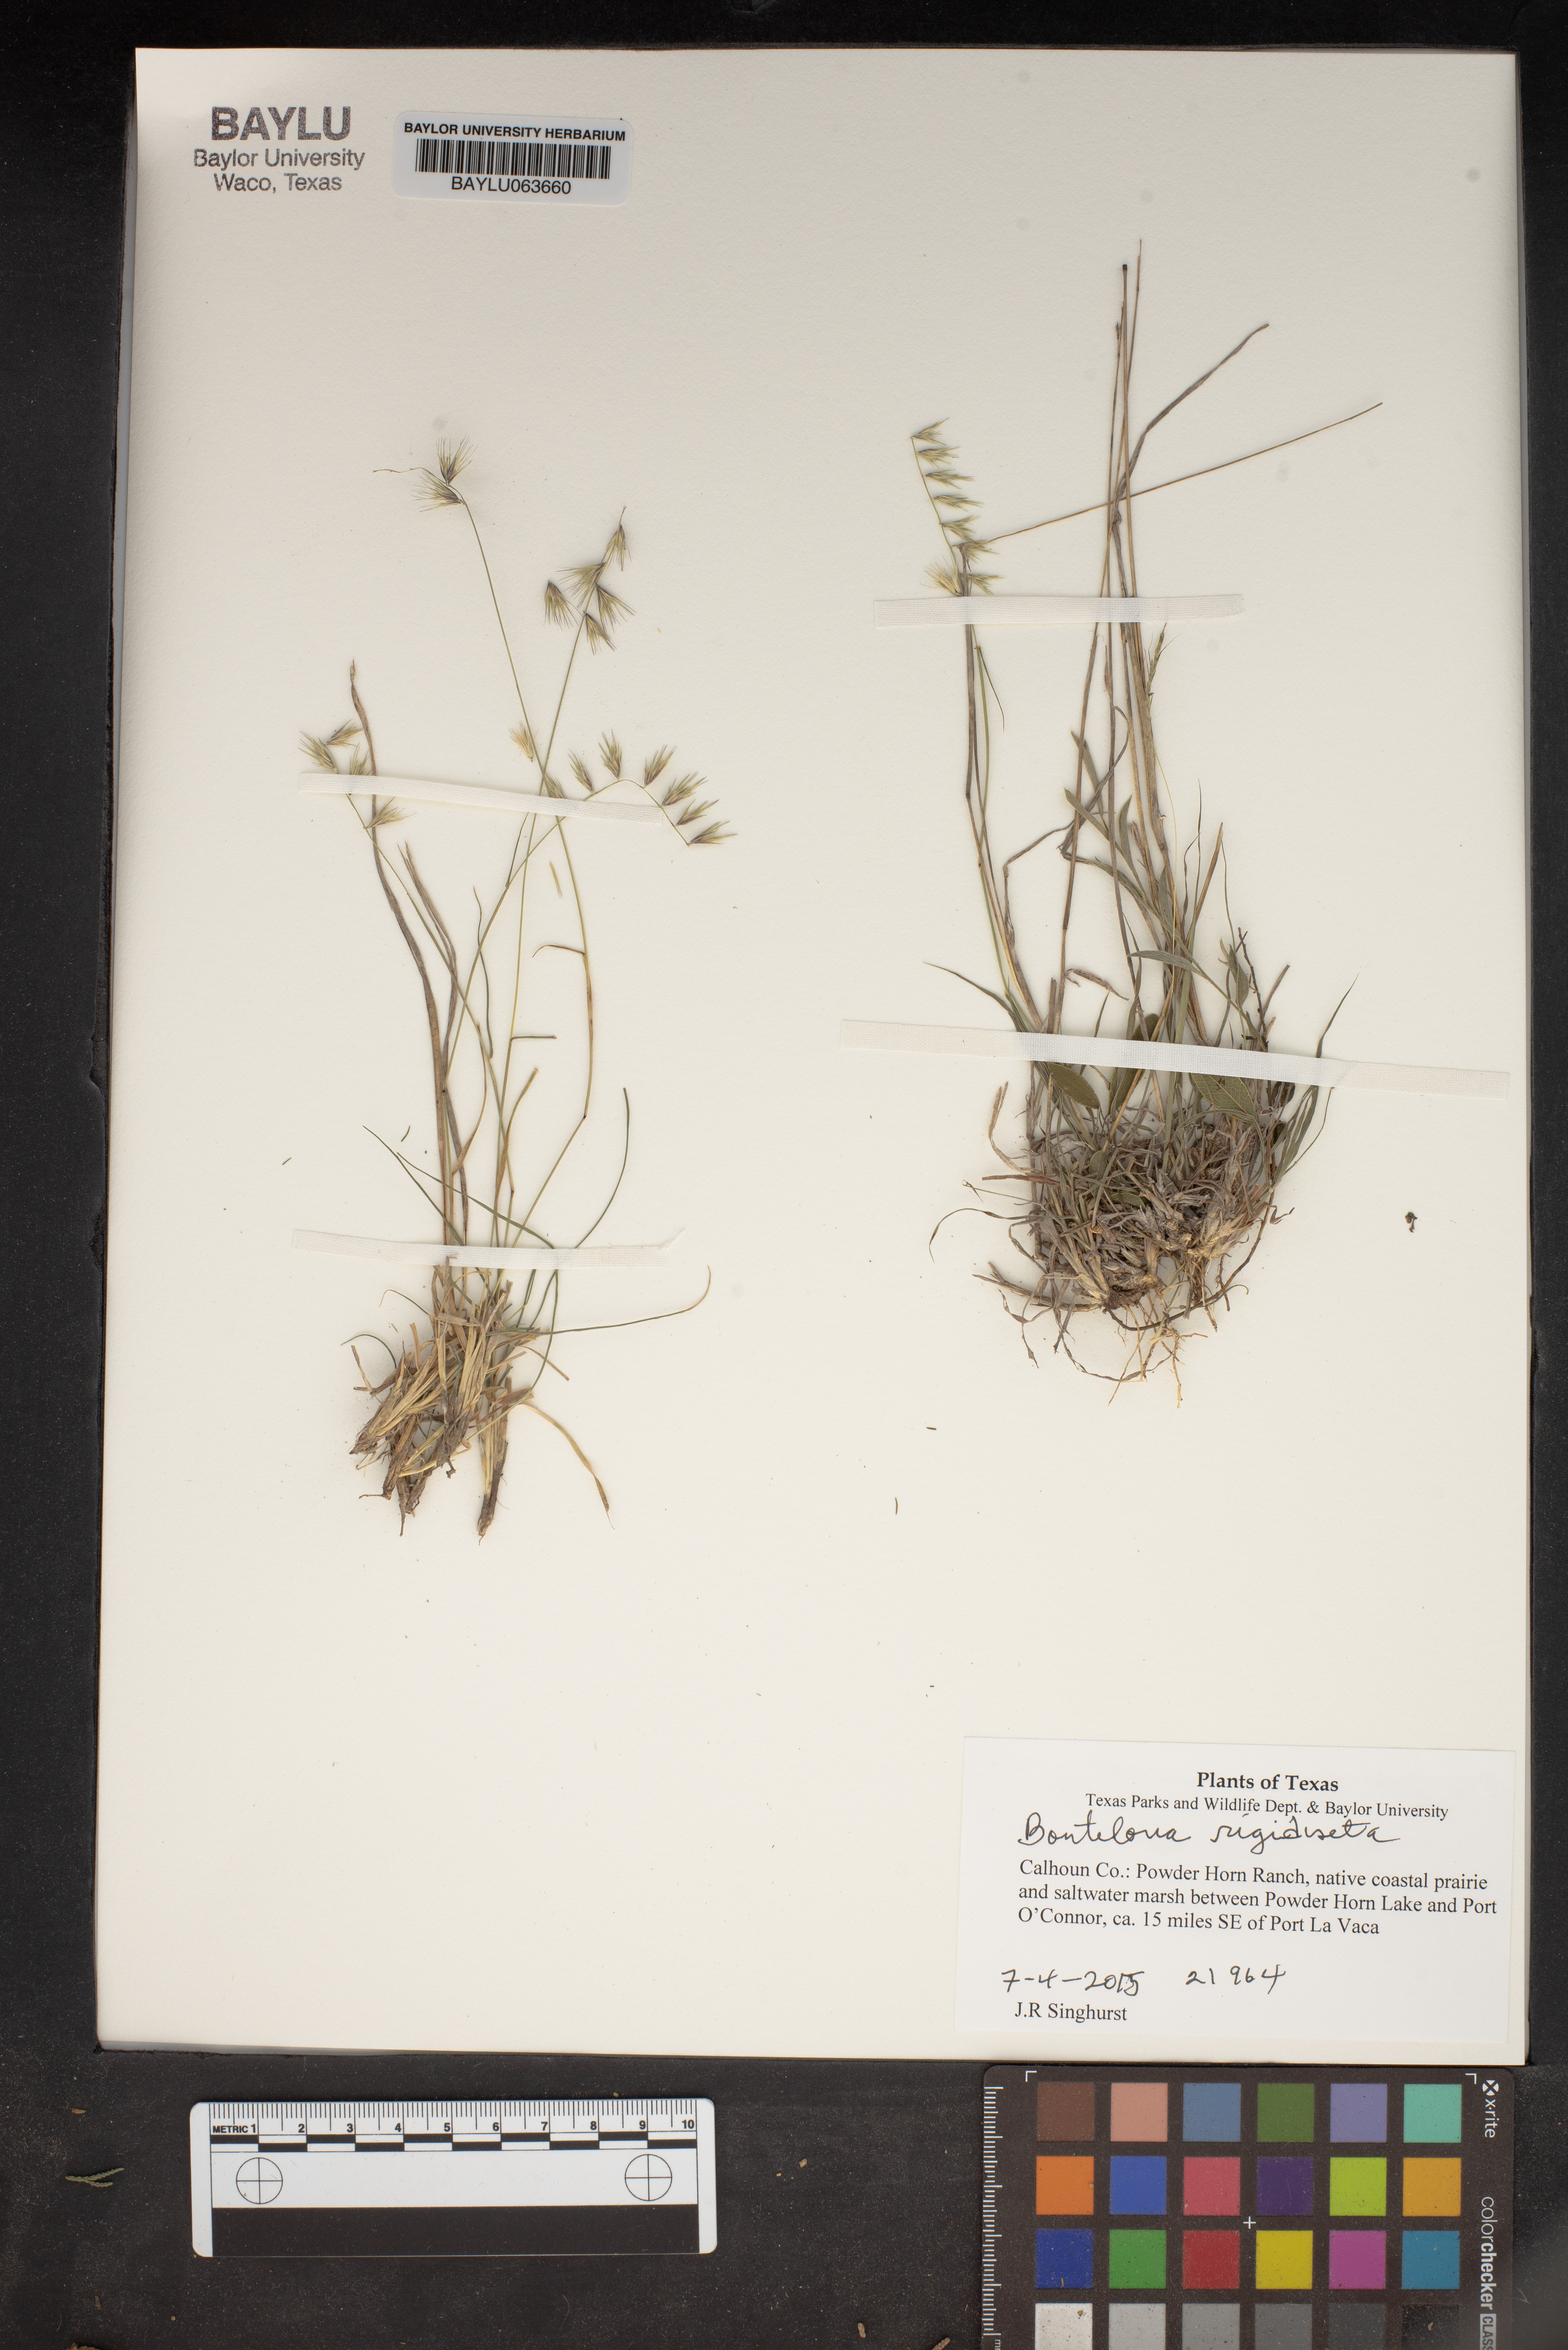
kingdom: Plantae
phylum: Tracheophyta
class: Liliopsida
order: Poales
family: Poaceae
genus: Bouteloua
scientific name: Bouteloua rigidiseta
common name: Texas grama
